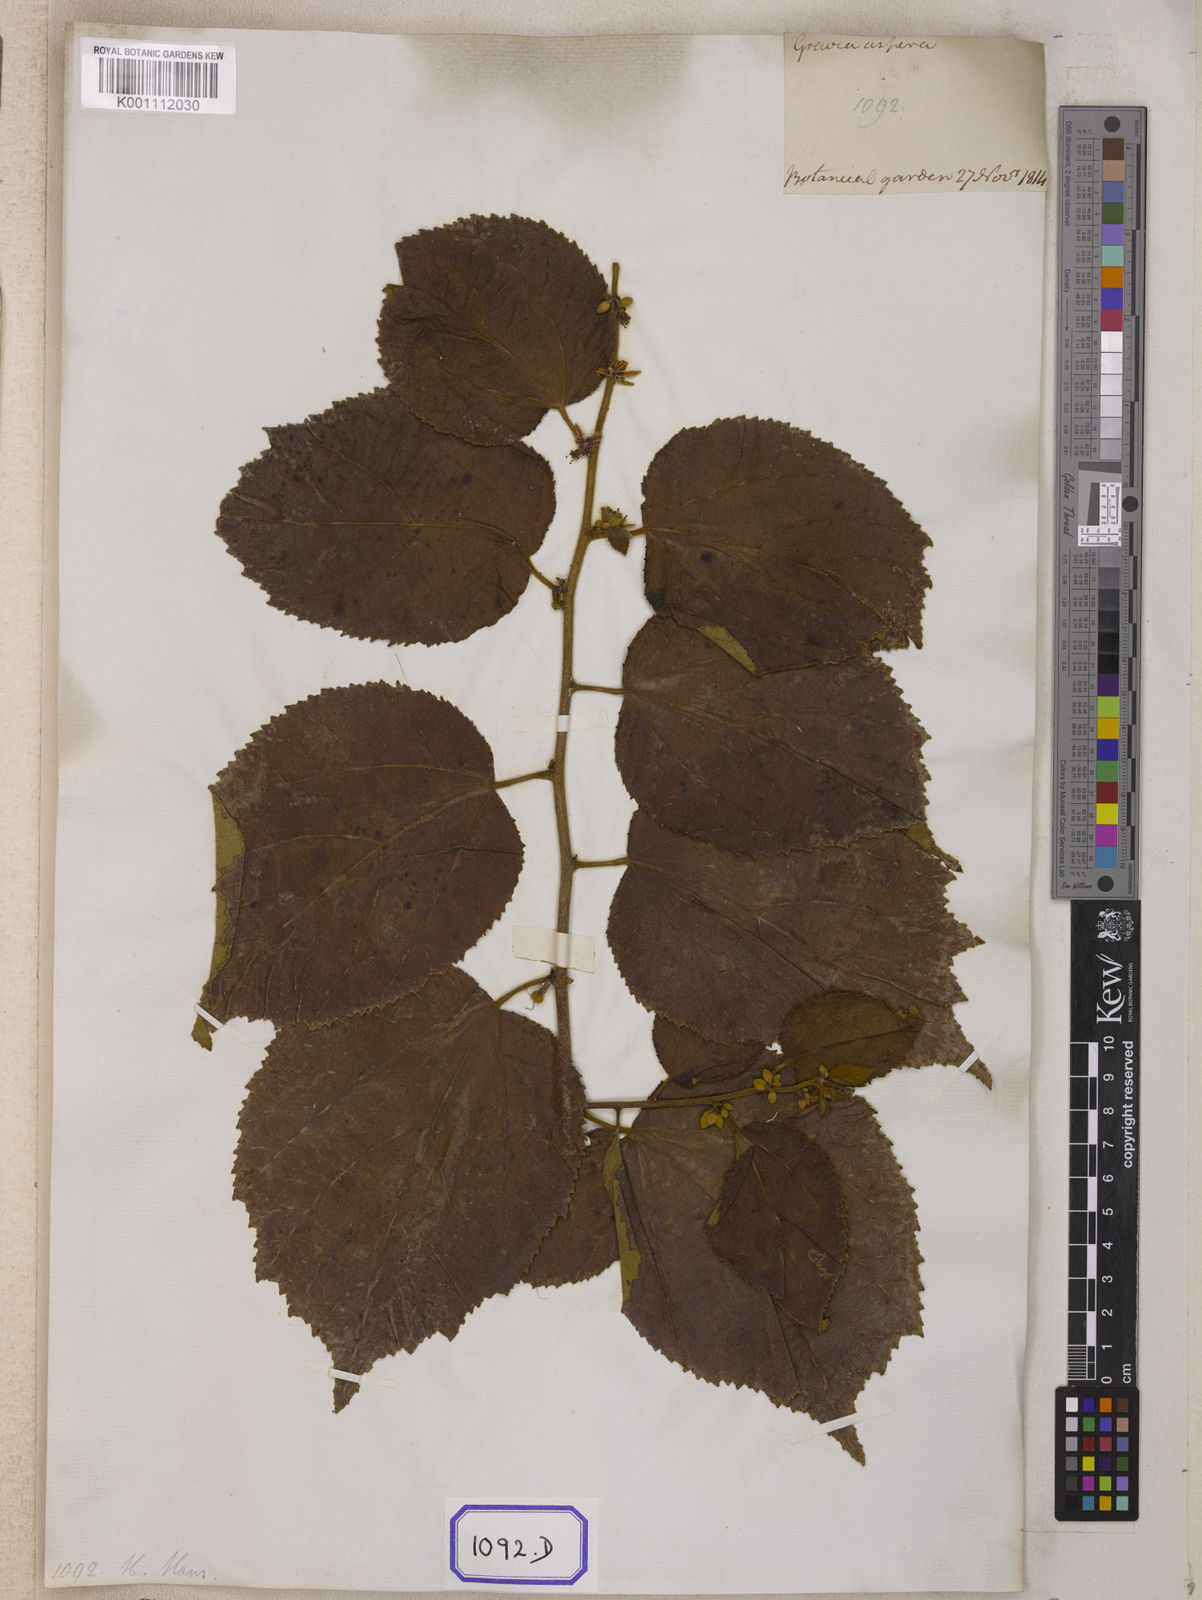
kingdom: Plantae
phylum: Tracheophyta
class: Magnoliopsida
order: Malvales
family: Malvaceae
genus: Grewia
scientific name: Grewia abutilifolia
